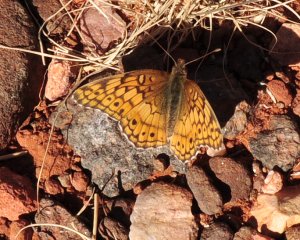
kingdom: Animalia
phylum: Arthropoda
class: Insecta
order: Lepidoptera
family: Nymphalidae
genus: Euptoieta
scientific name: Euptoieta claudia
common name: Variegated Fritillary
